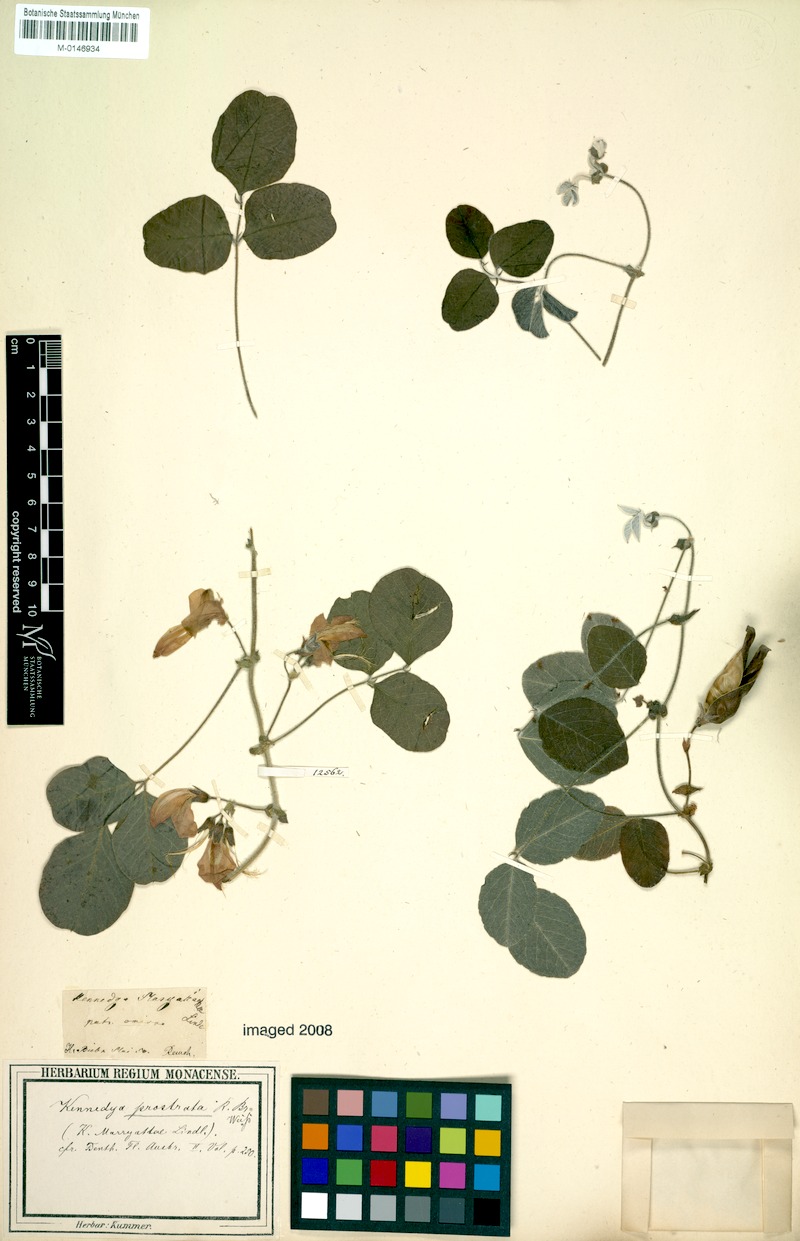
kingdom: Plantae
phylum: Tracheophyta
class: Magnoliopsida
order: Fabales
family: Fabaceae
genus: Kennedia
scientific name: Kennedia prostrata
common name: Running-postman
